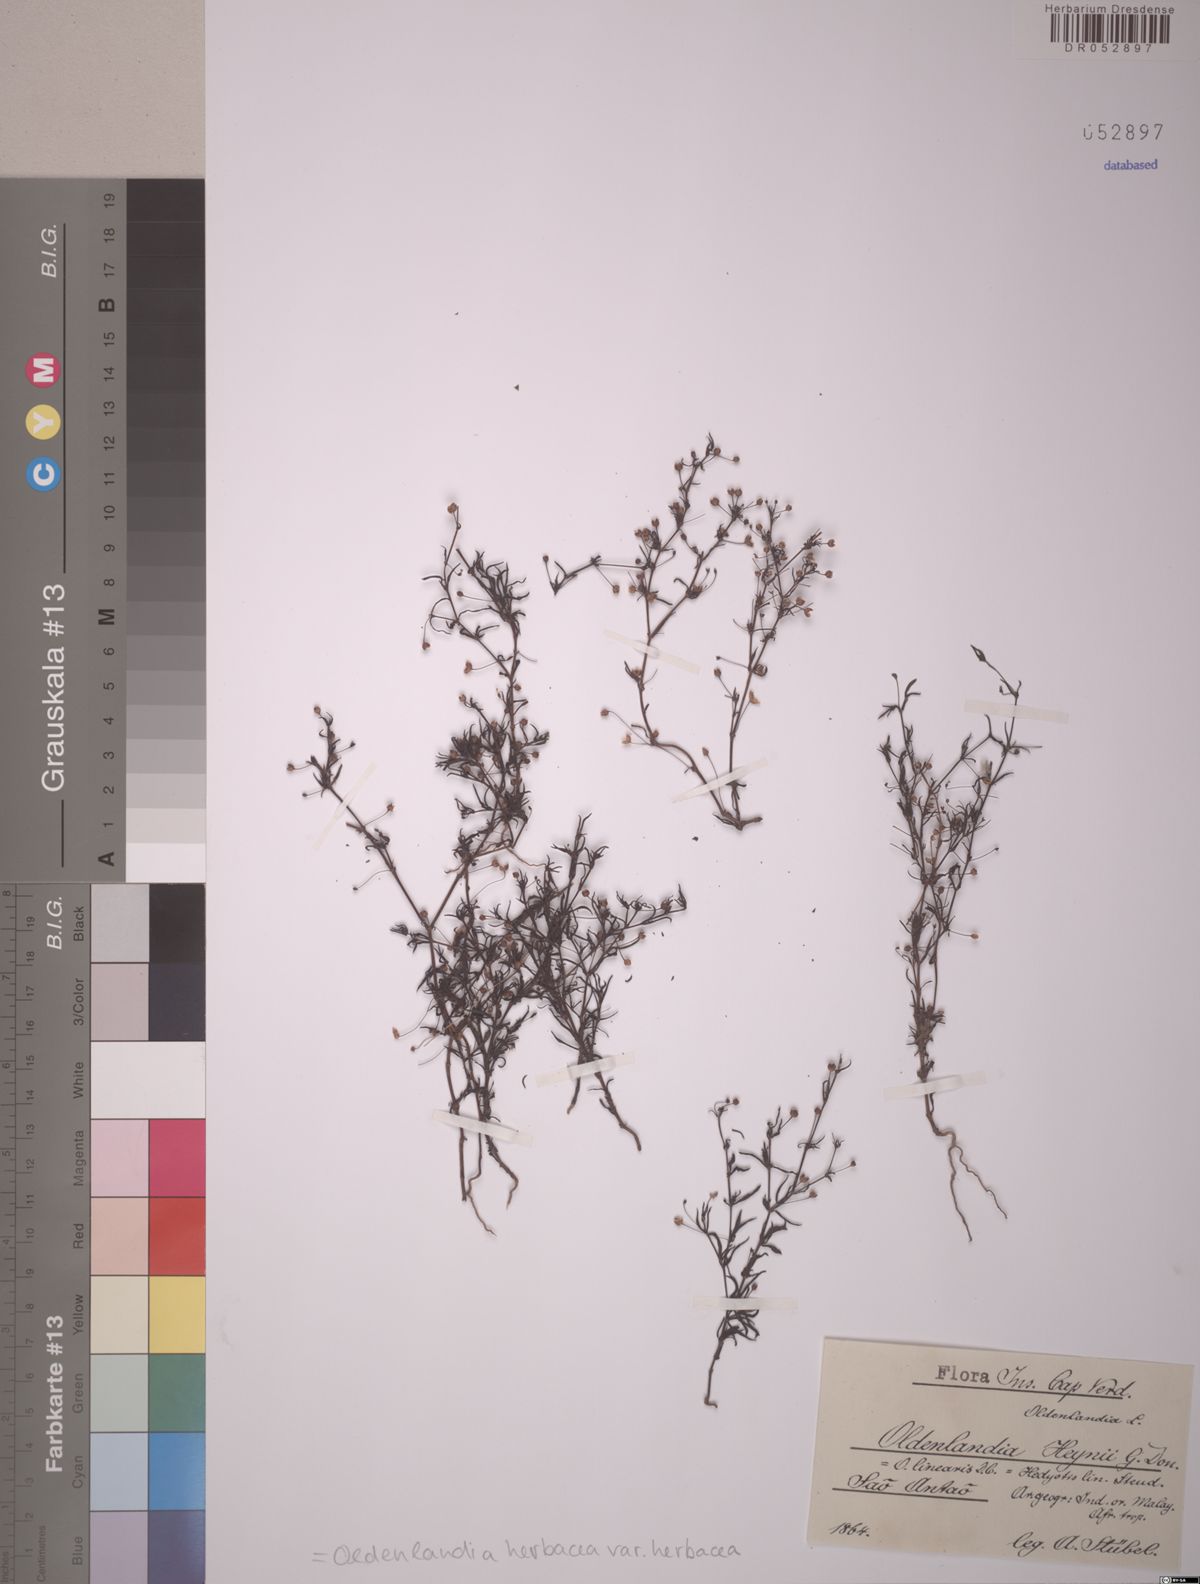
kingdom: Plantae
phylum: Tracheophyta
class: Magnoliopsida
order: Gentianales
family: Rubiaceae
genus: Oldenlandia
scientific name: Oldenlandia herbacea
